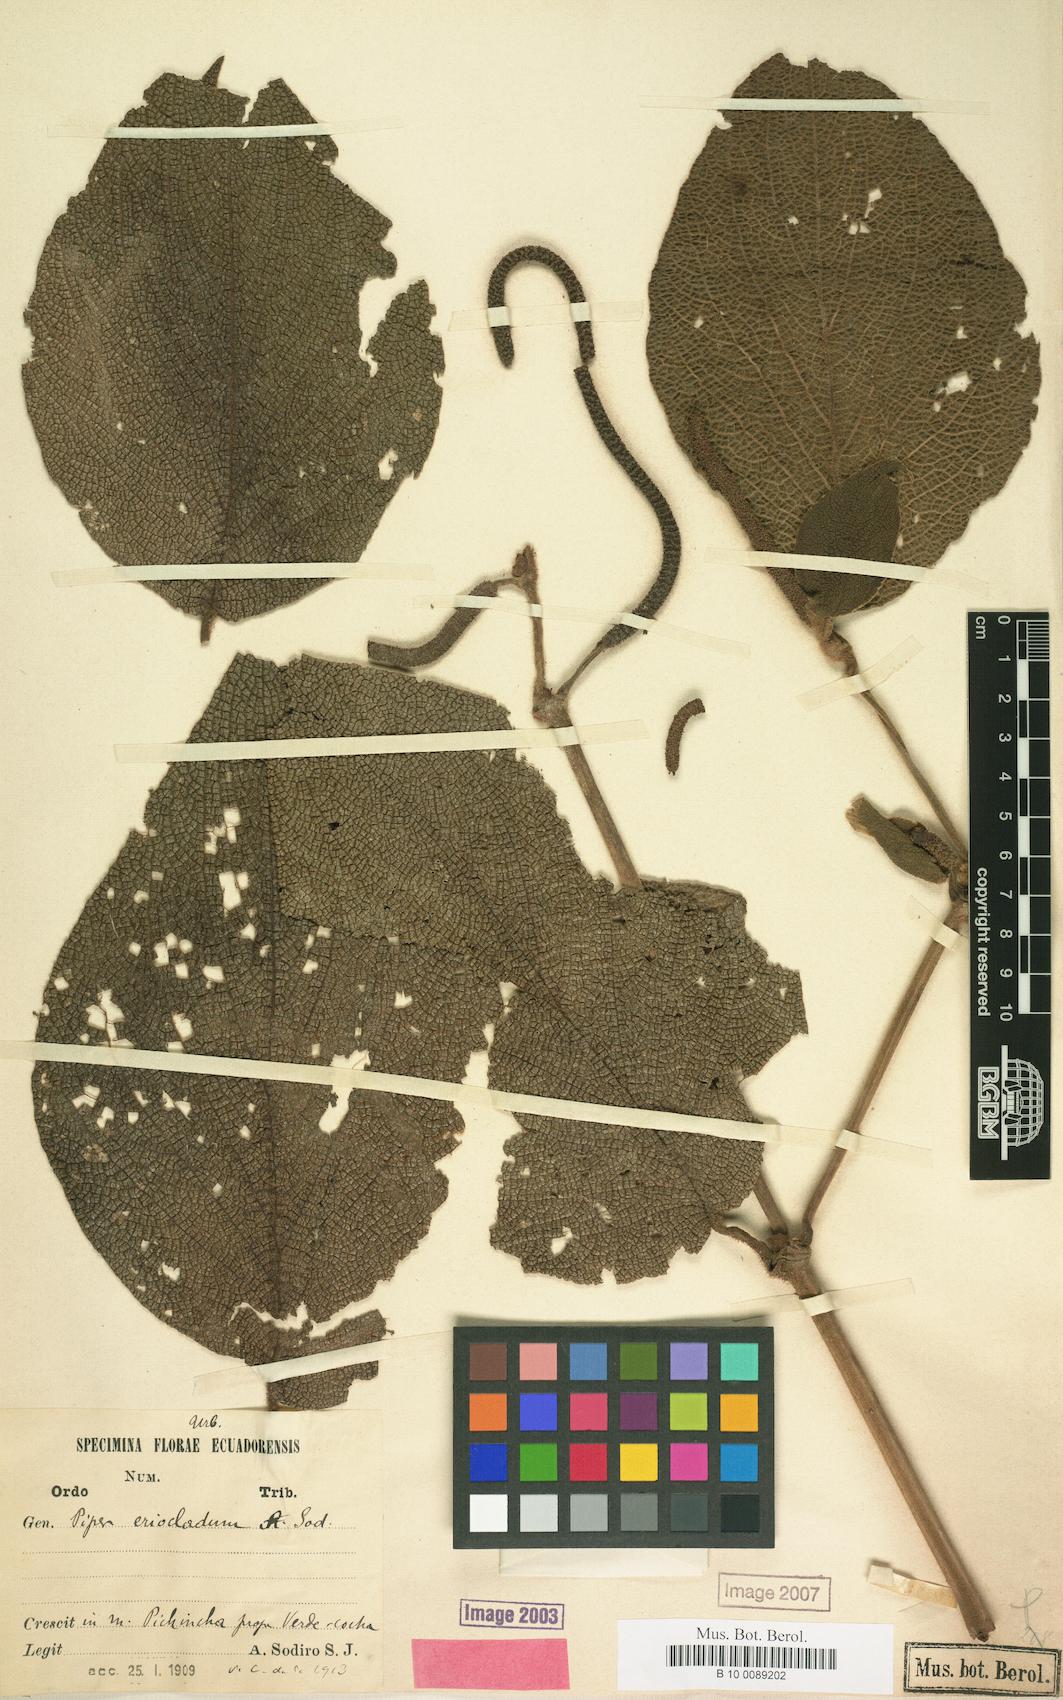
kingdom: Plantae
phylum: Tracheophyta
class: Magnoliopsida
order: Piperales
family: Piperaceae
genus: Piper
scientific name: Piper eriocladum
